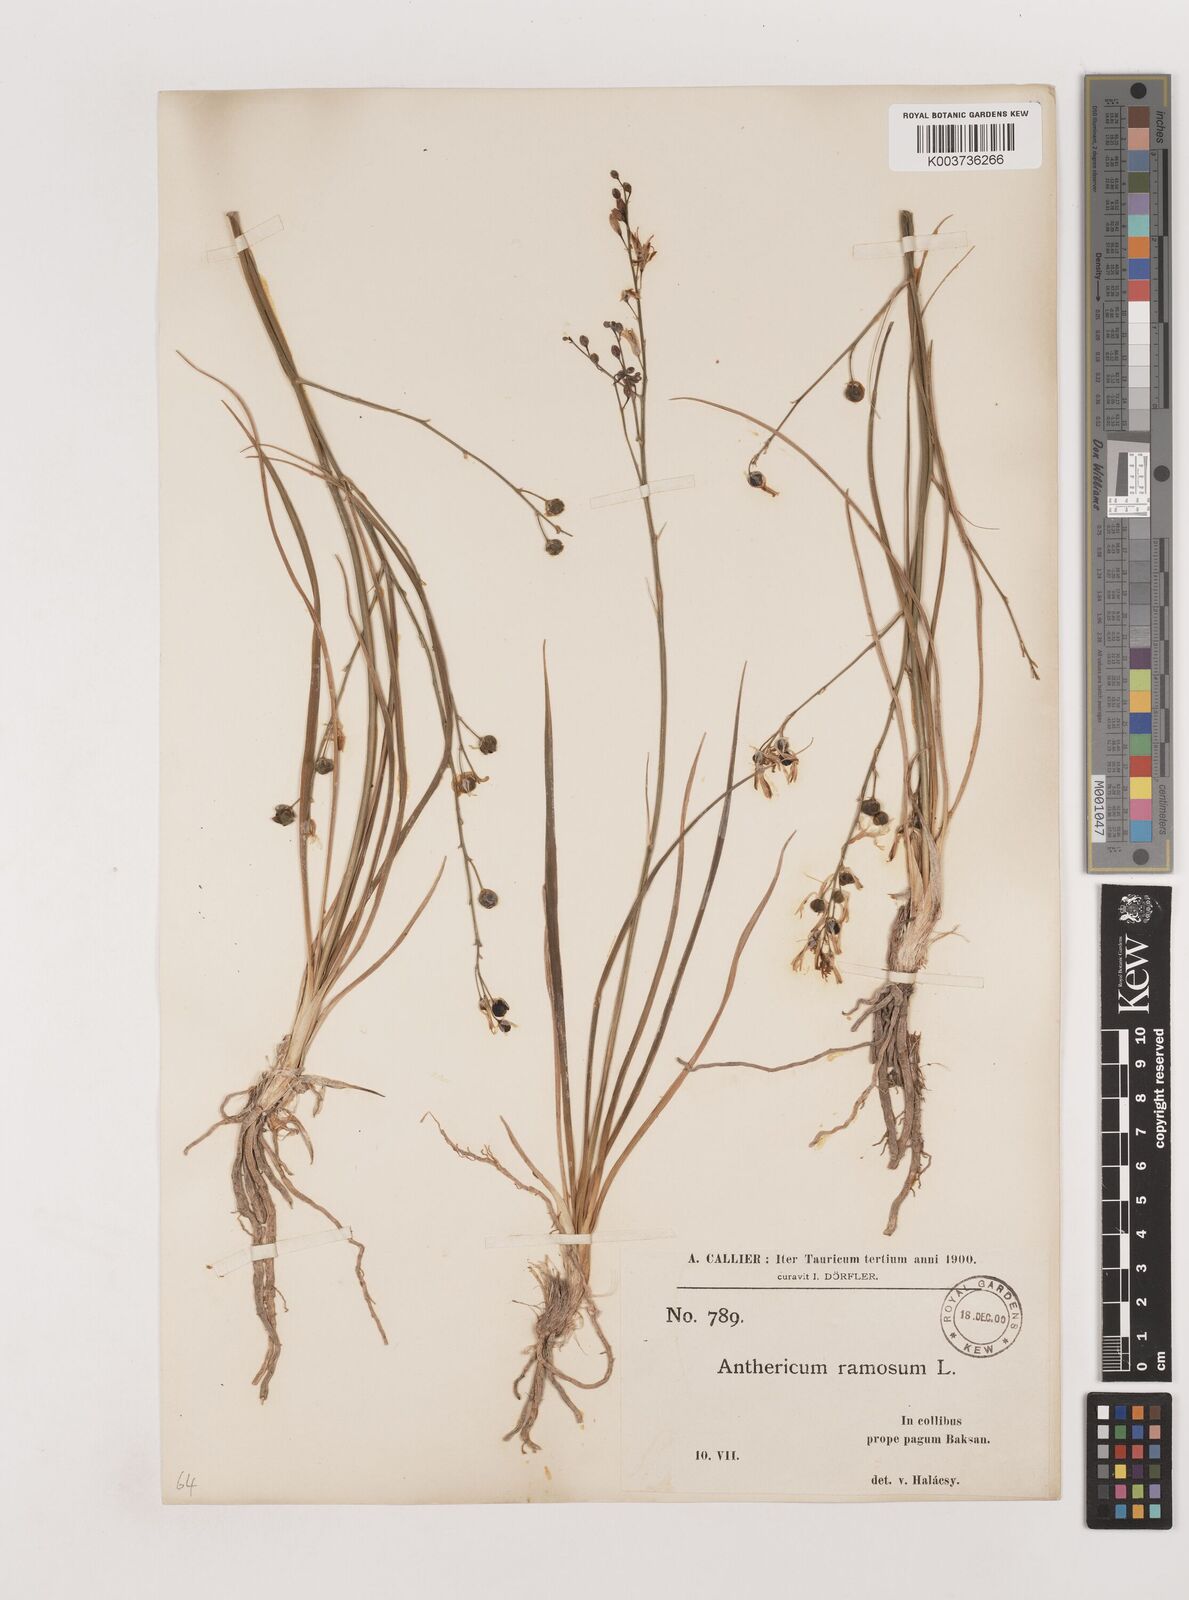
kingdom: Plantae
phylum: Tracheophyta
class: Liliopsida
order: Asparagales
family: Asparagaceae
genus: Anthericum
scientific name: Anthericum ramosum
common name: Branched st. bernard's-lily
